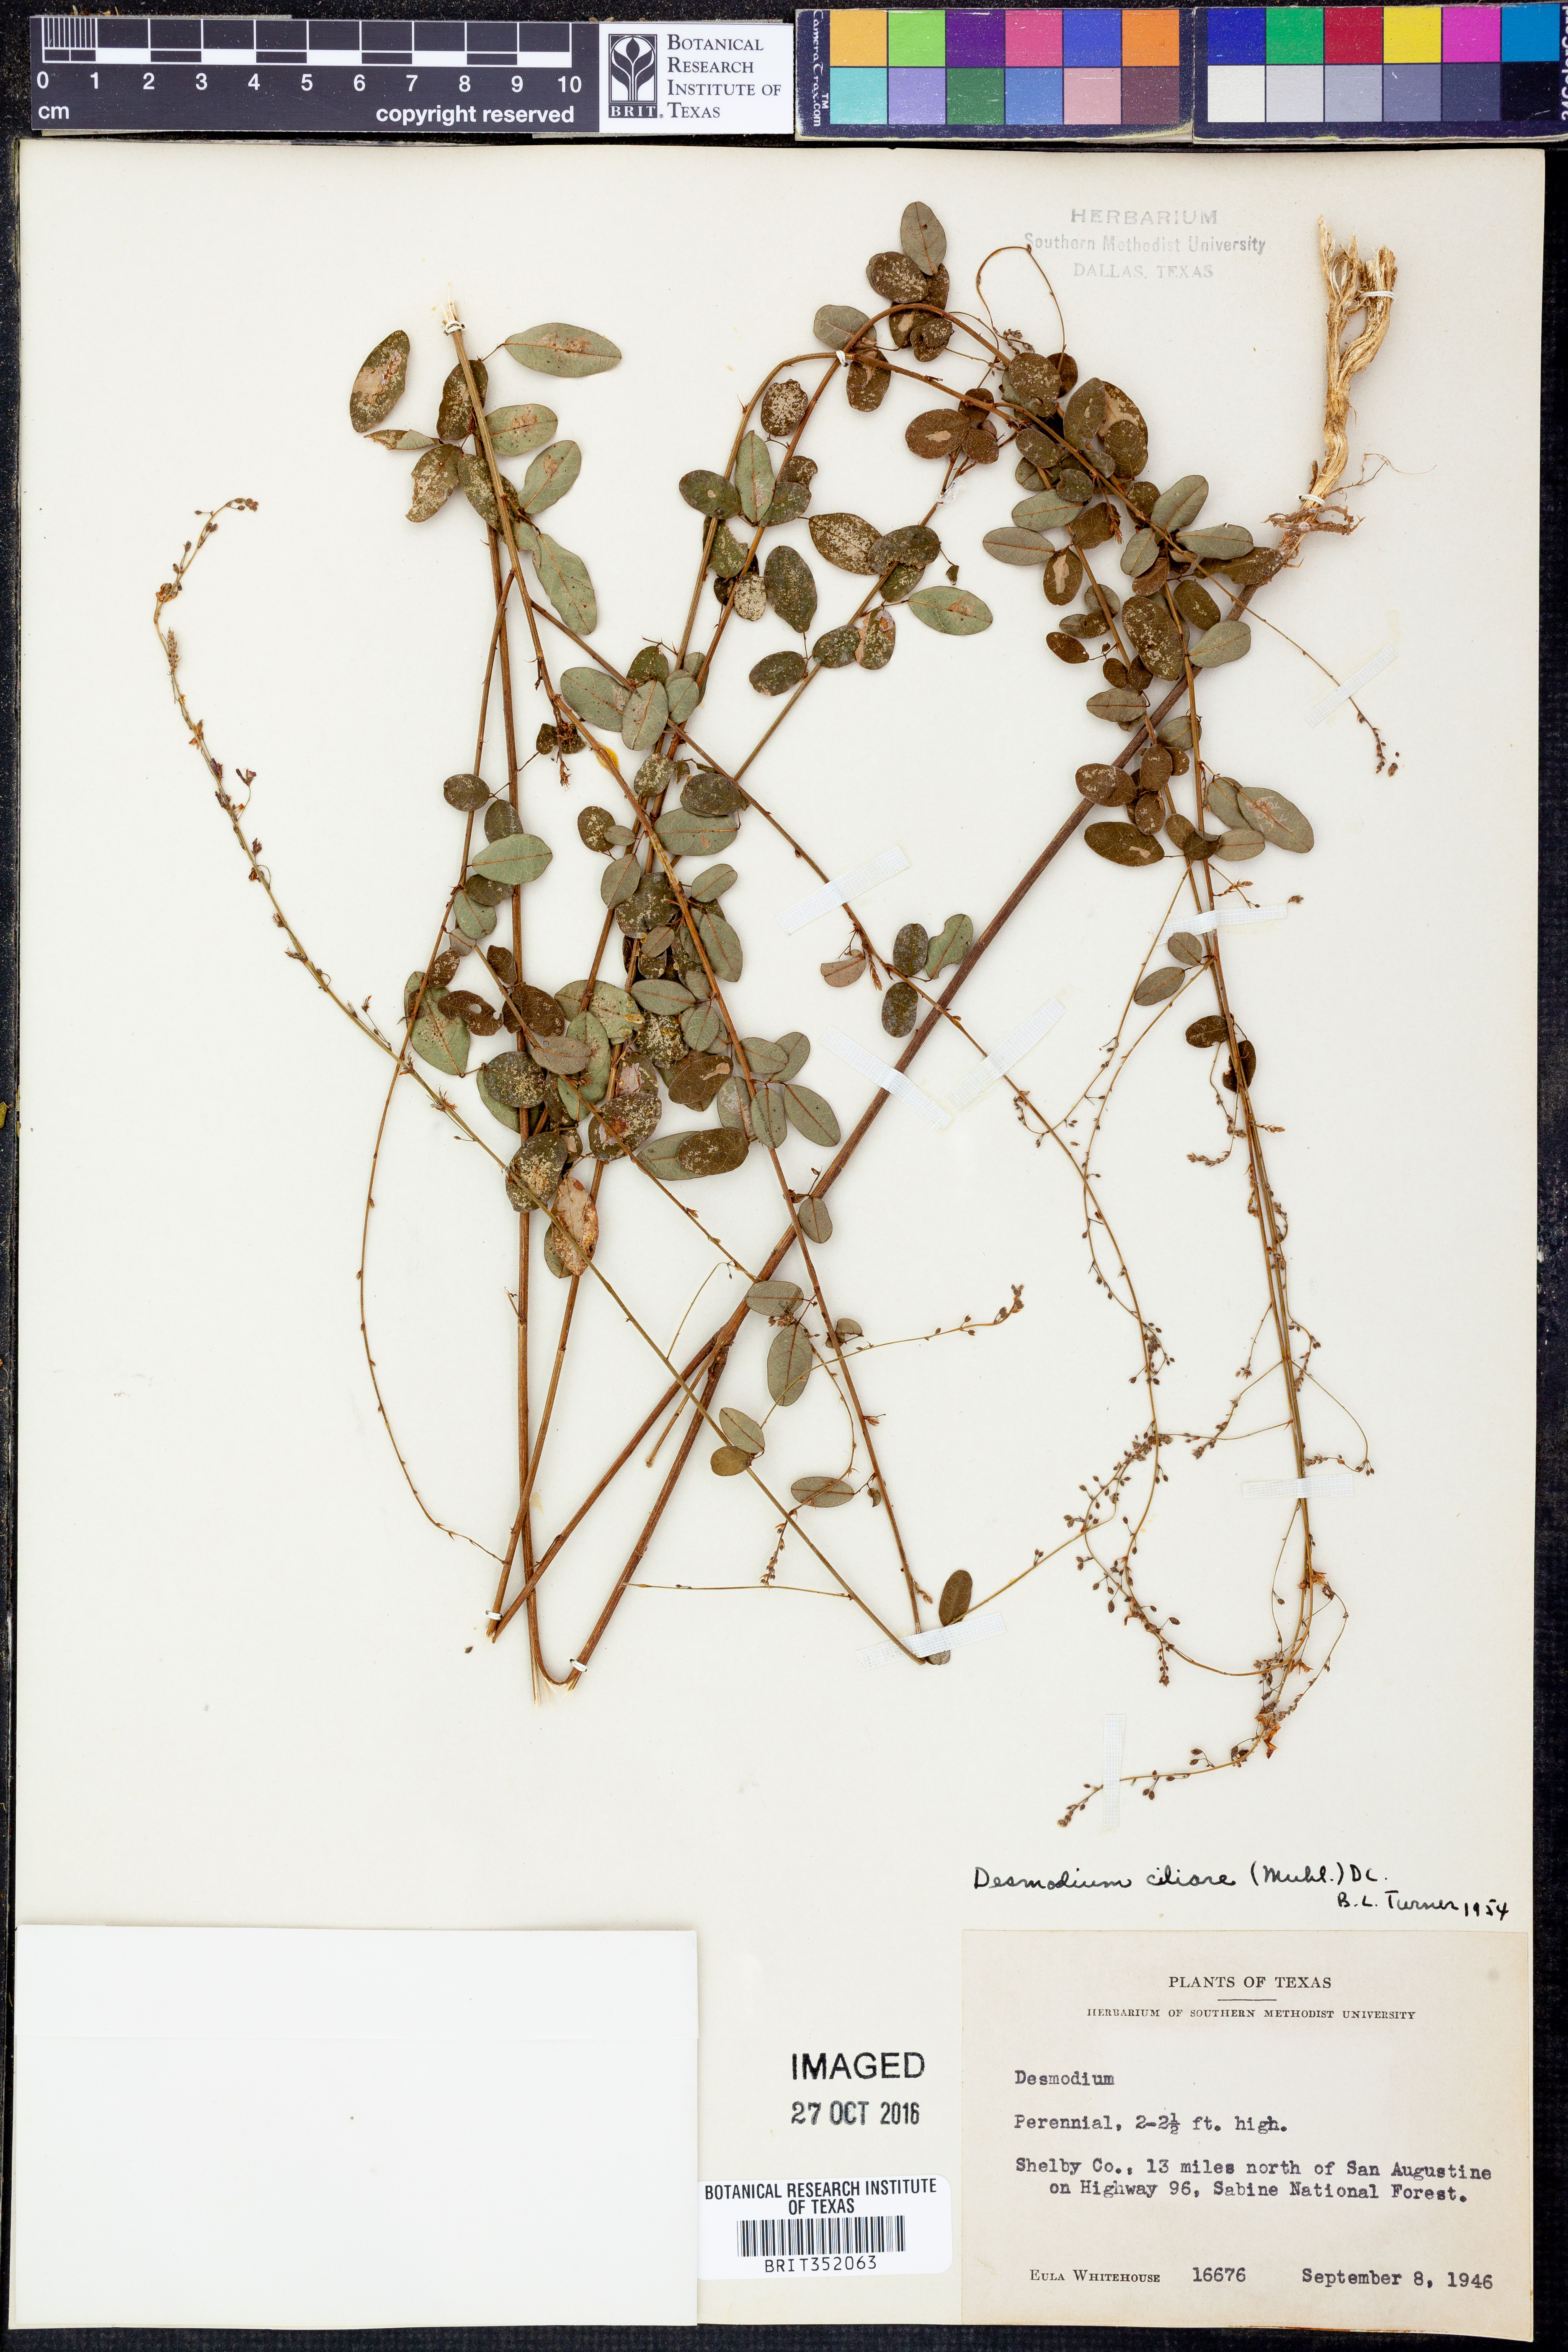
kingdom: Plantae
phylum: Tracheophyta
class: Magnoliopsida
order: Fabales
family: Fabaceae
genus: Desmodium
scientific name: Desmodium ciliare
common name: Hairy small-leaf ticktrefoil
